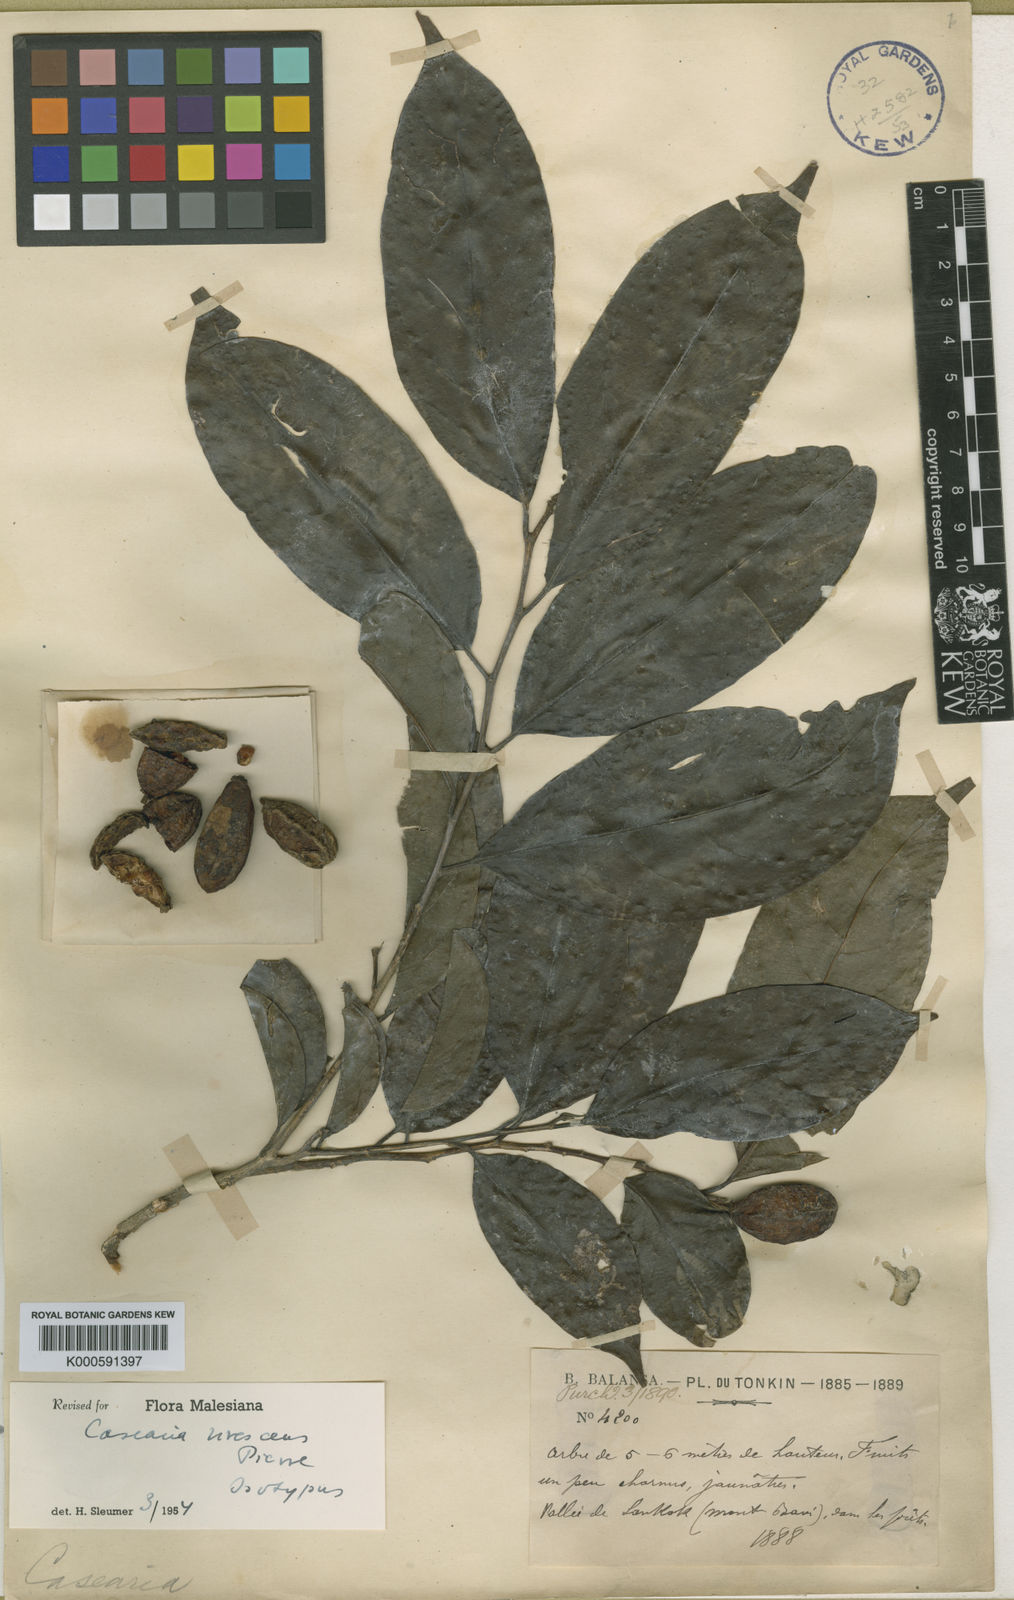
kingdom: Plantae
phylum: Tracheophyta
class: Magnoliopsida
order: Malpighiales
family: Salicaceae
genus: Casearia
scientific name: Casearia virescens
